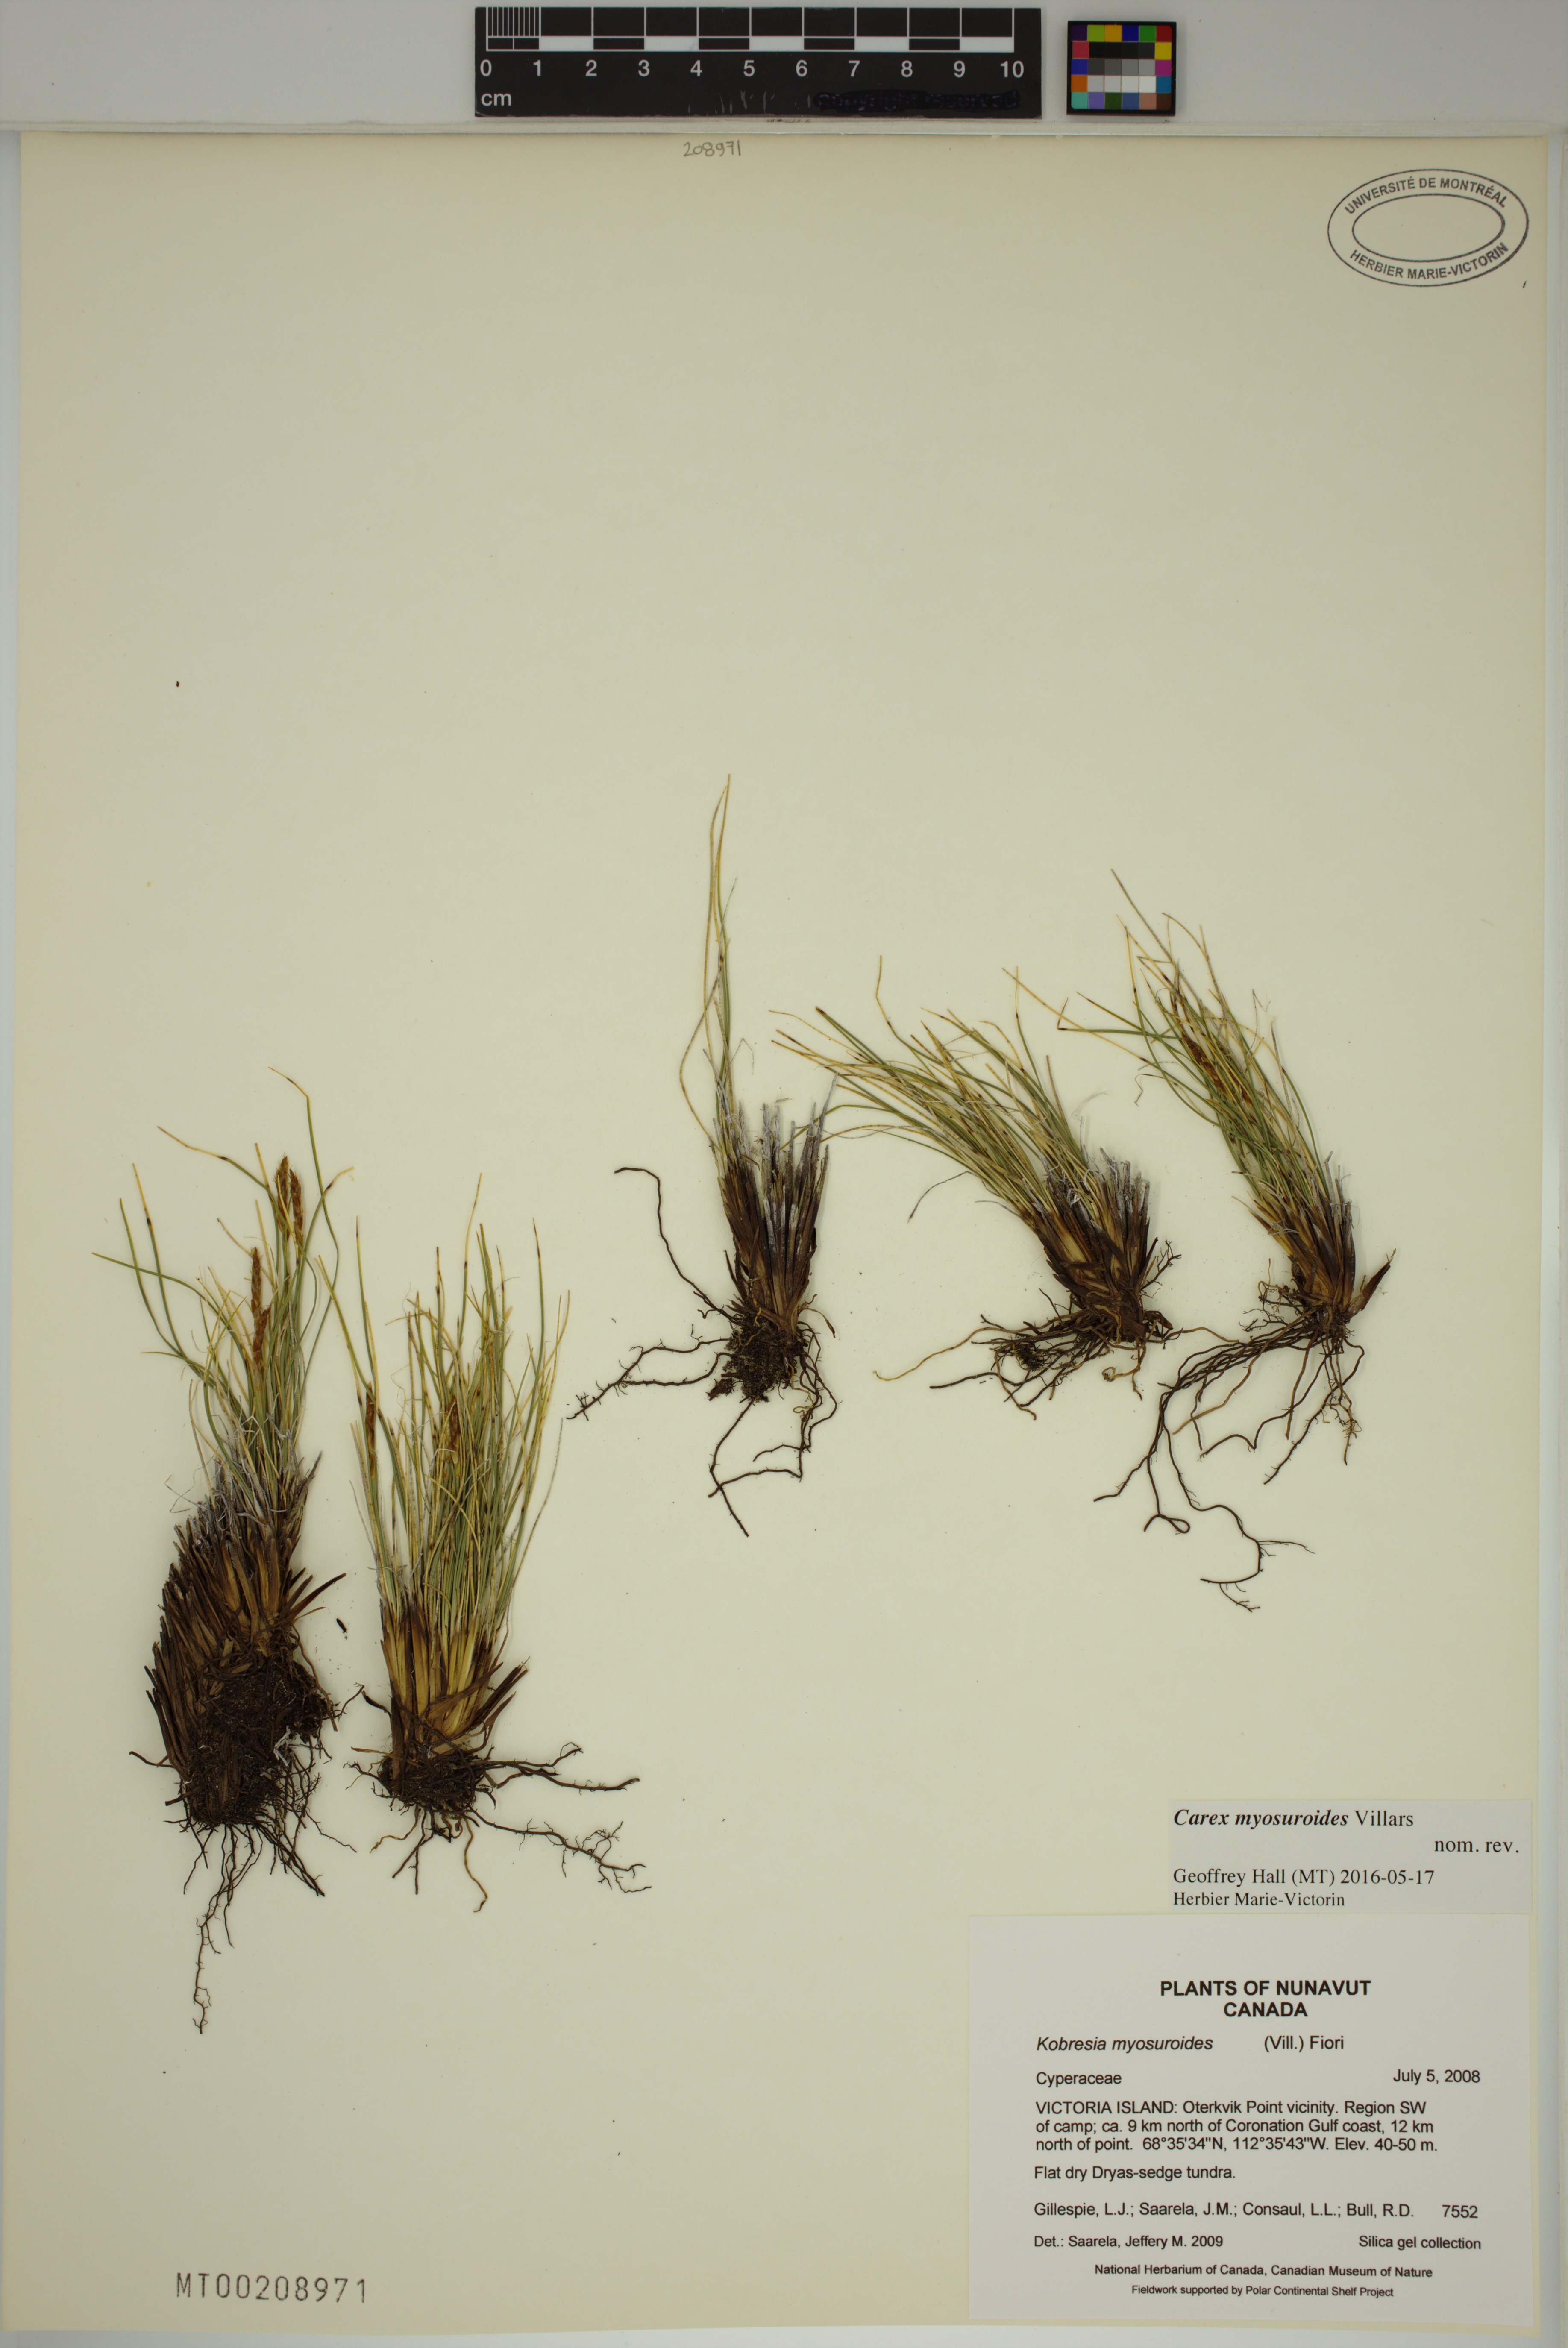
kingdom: Plantae
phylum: Tracheophyta
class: Liliopsida
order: Poales
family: Cyperaceae
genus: Carex
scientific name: Carex myosuroides
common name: Bellard's bog sedge
